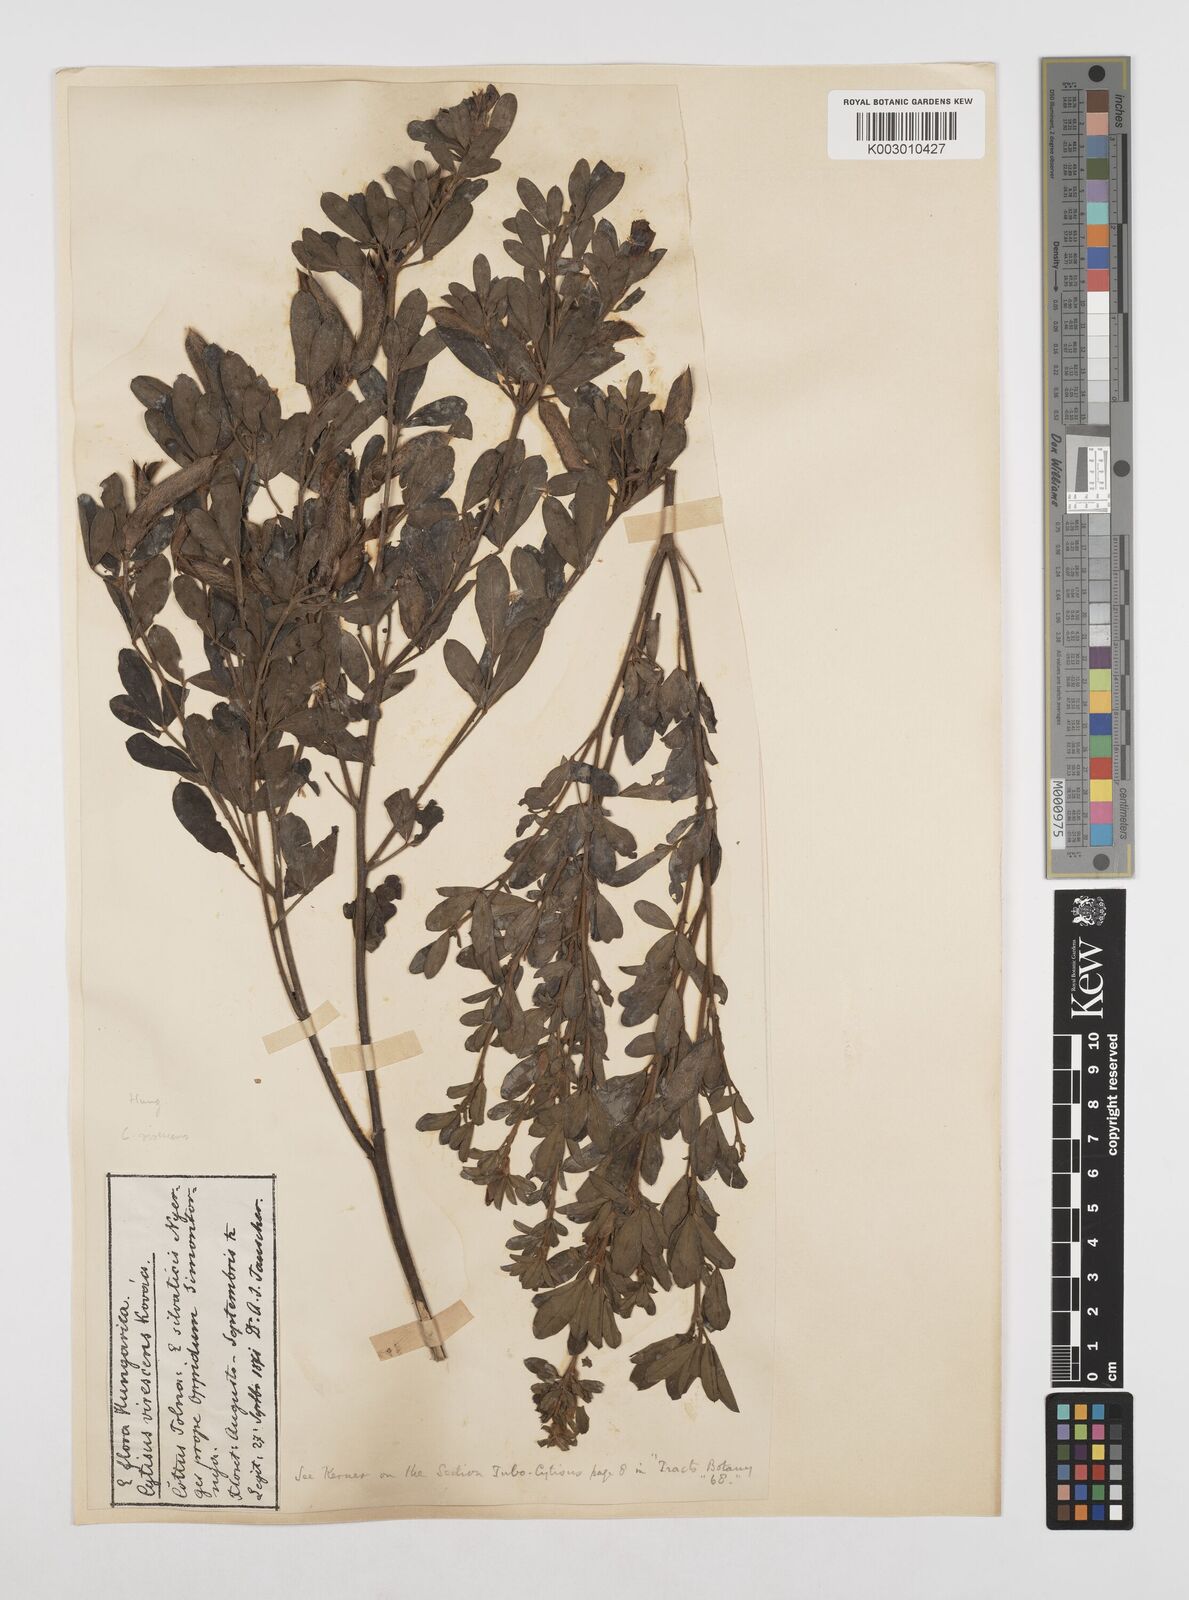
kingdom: Plantae
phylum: Tracheophyta
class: Magnoliopsida
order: Fabales
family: Fabaceae
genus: Chamaecytisus
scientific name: Chamaecytisus austriacus
